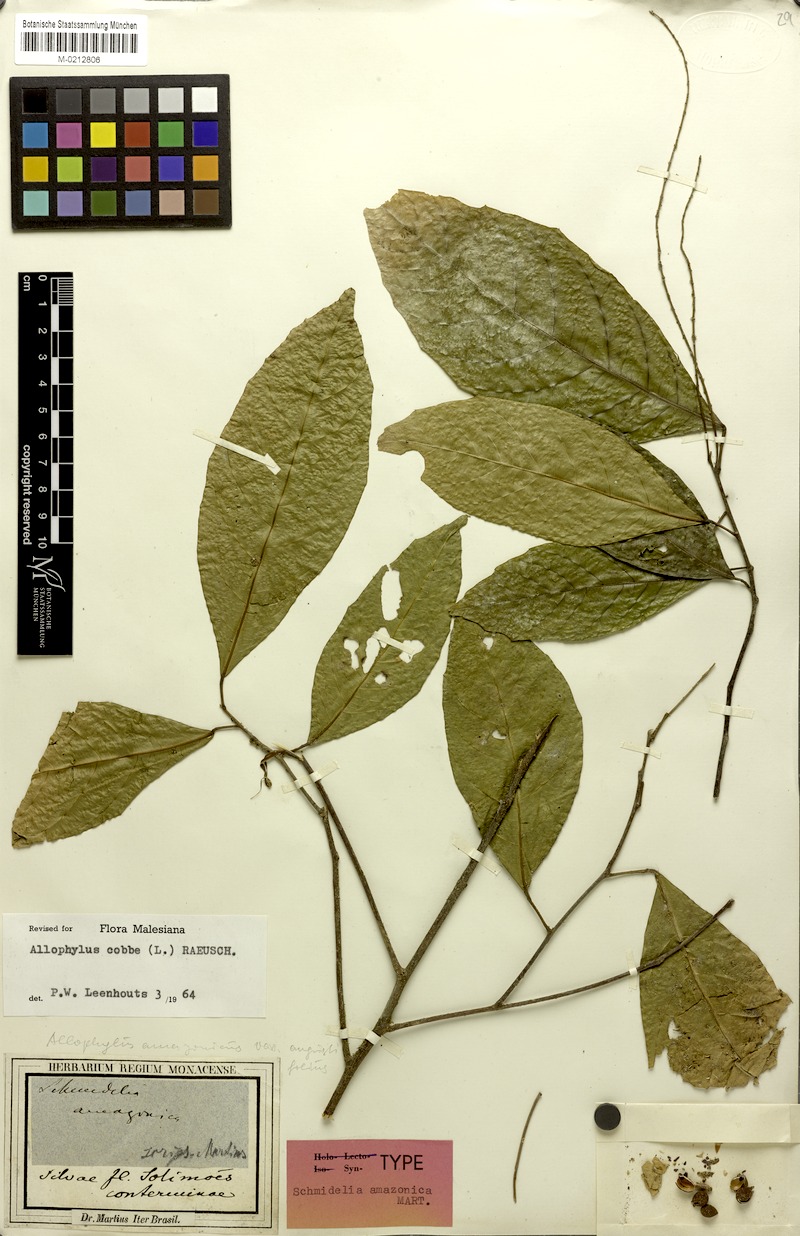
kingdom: Plantae
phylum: Tracheophyta
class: Magnoliopsida
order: Sapindales
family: Sapindaceae
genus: Allophylus
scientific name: Allophylus amazonicus
